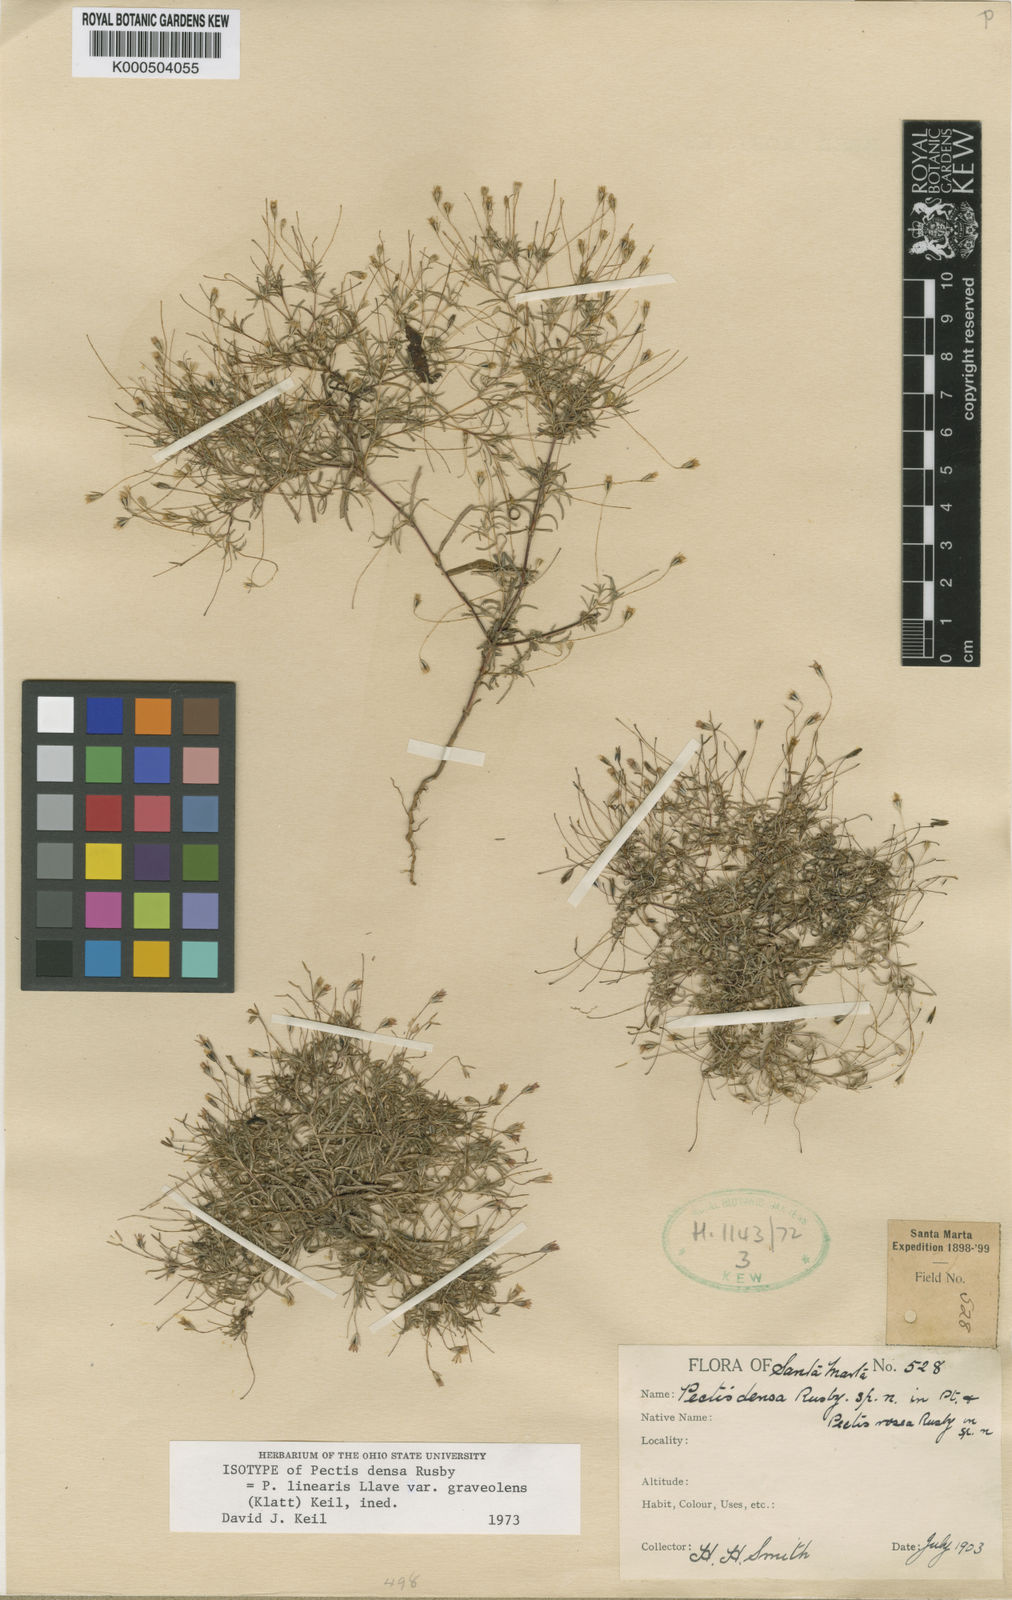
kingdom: Plantae
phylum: Tracheophyta
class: Magnoliopsida
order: Asterales
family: Asteraceae
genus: Pectis
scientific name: Pectis linearis
